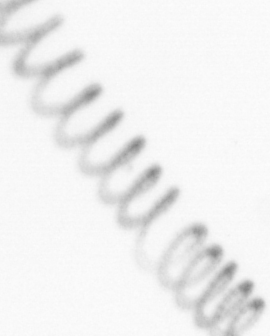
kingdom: Chromista
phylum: Ochrophyta
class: Bacillariophyceae
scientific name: Bacillariophyceae
